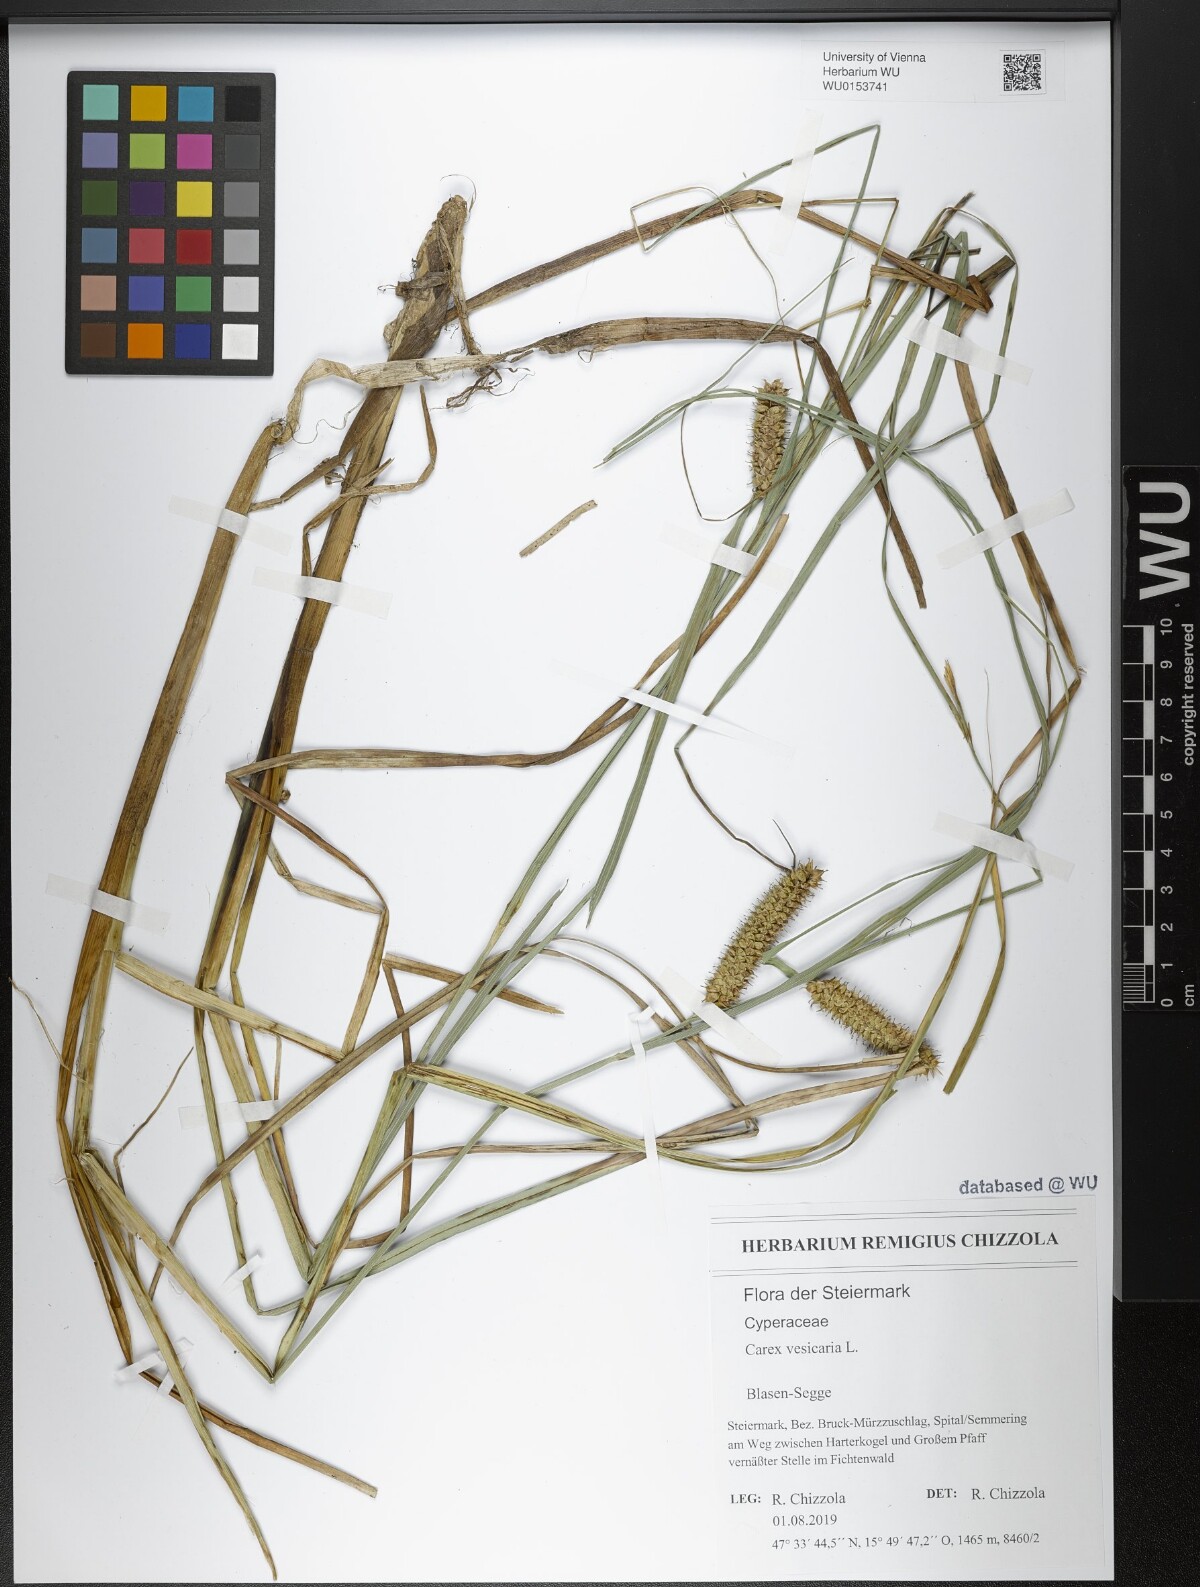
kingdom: Plantae
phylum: Tracheophyta
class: Liliopsida
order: Poales
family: Cyperaceae
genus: Carex
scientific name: Carex vesicaria
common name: Bladder-sedge
